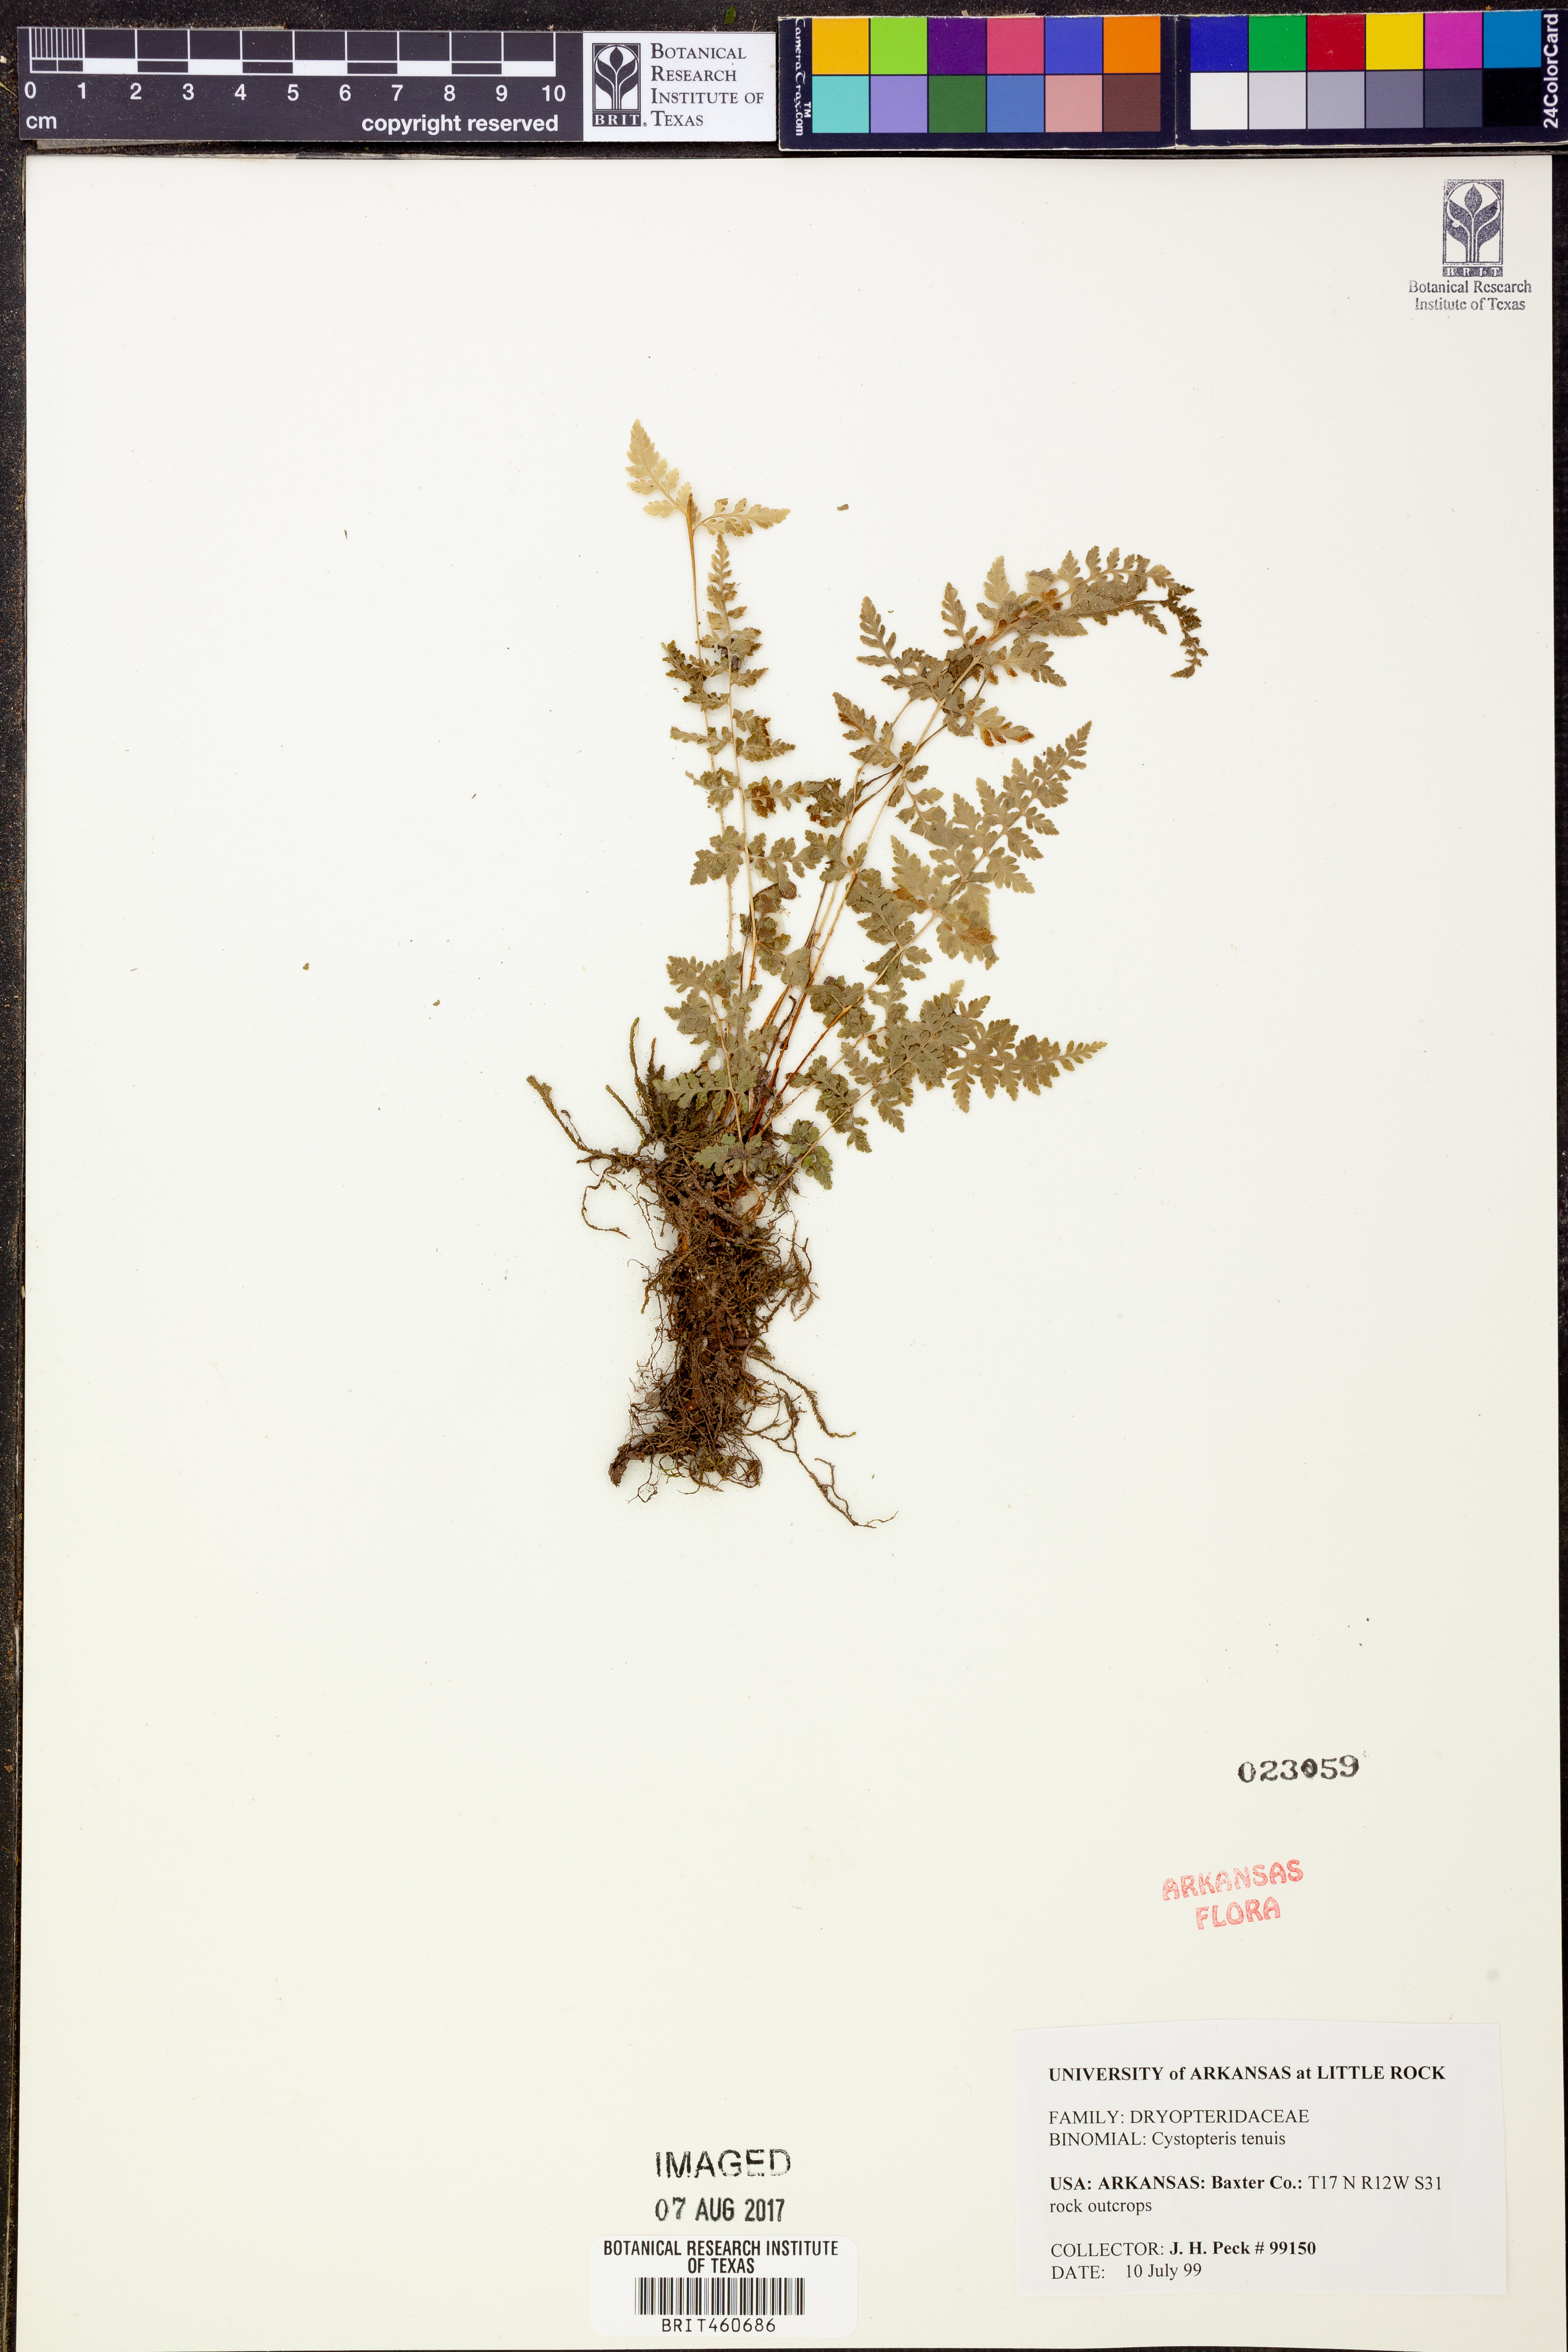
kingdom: Plantae
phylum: Tracheophyta
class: Polypodiopsida
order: Polypodiales
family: Cystopteridaceae
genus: Cystopteris
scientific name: Cystopteris tenuis
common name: Mackay's brittle fern
